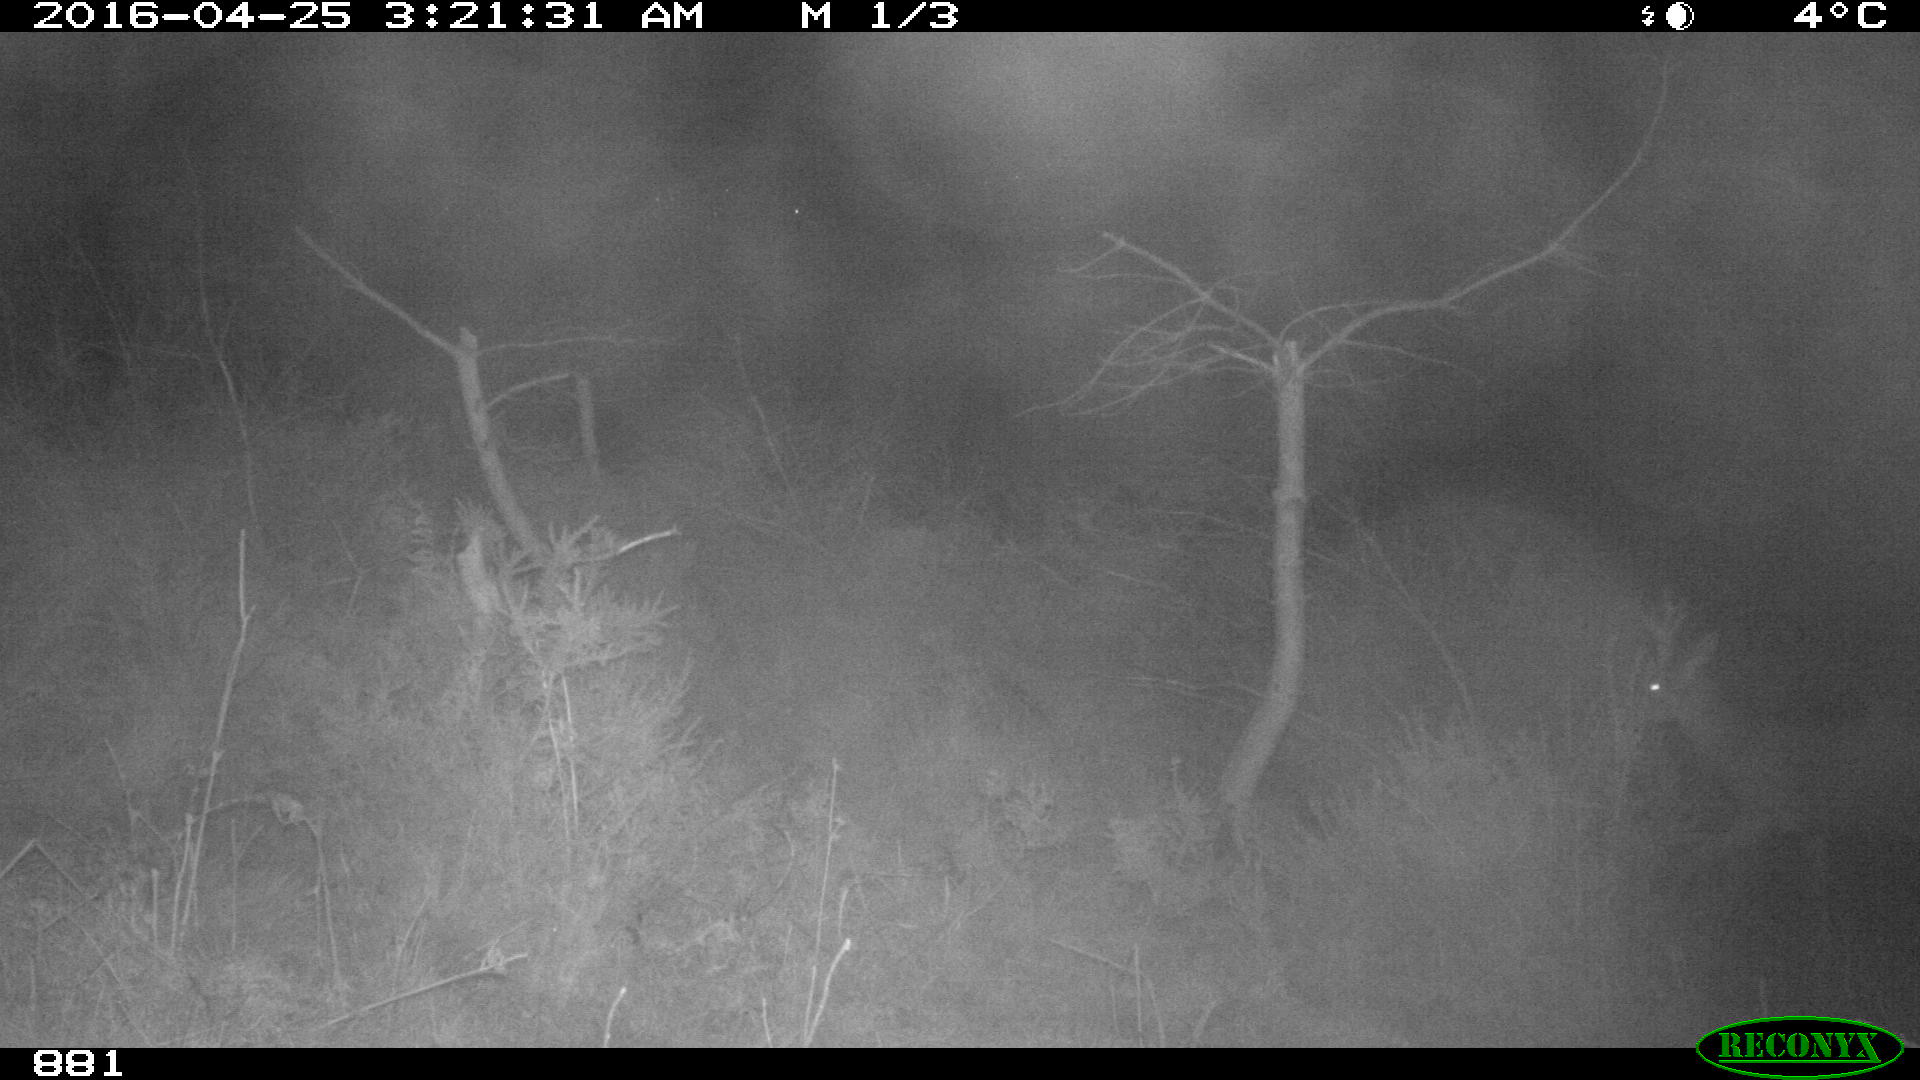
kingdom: Animalia
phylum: Chordata
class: Mammalia
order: Artiodactyla
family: Cervidae
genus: Capreolus
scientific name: Capreolus capreolus
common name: Western roe deer
